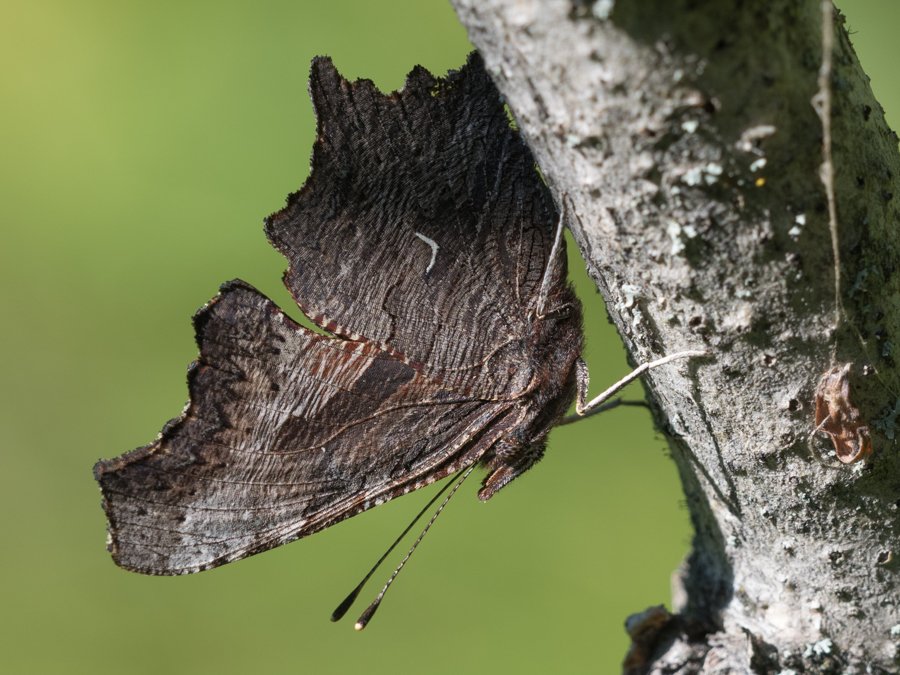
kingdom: Animalia
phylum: Arthropoda
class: Insecta
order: Lepidoptera
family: Nymphalidae
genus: Polygonia
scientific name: Polygonia progne
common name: Gray Comma
